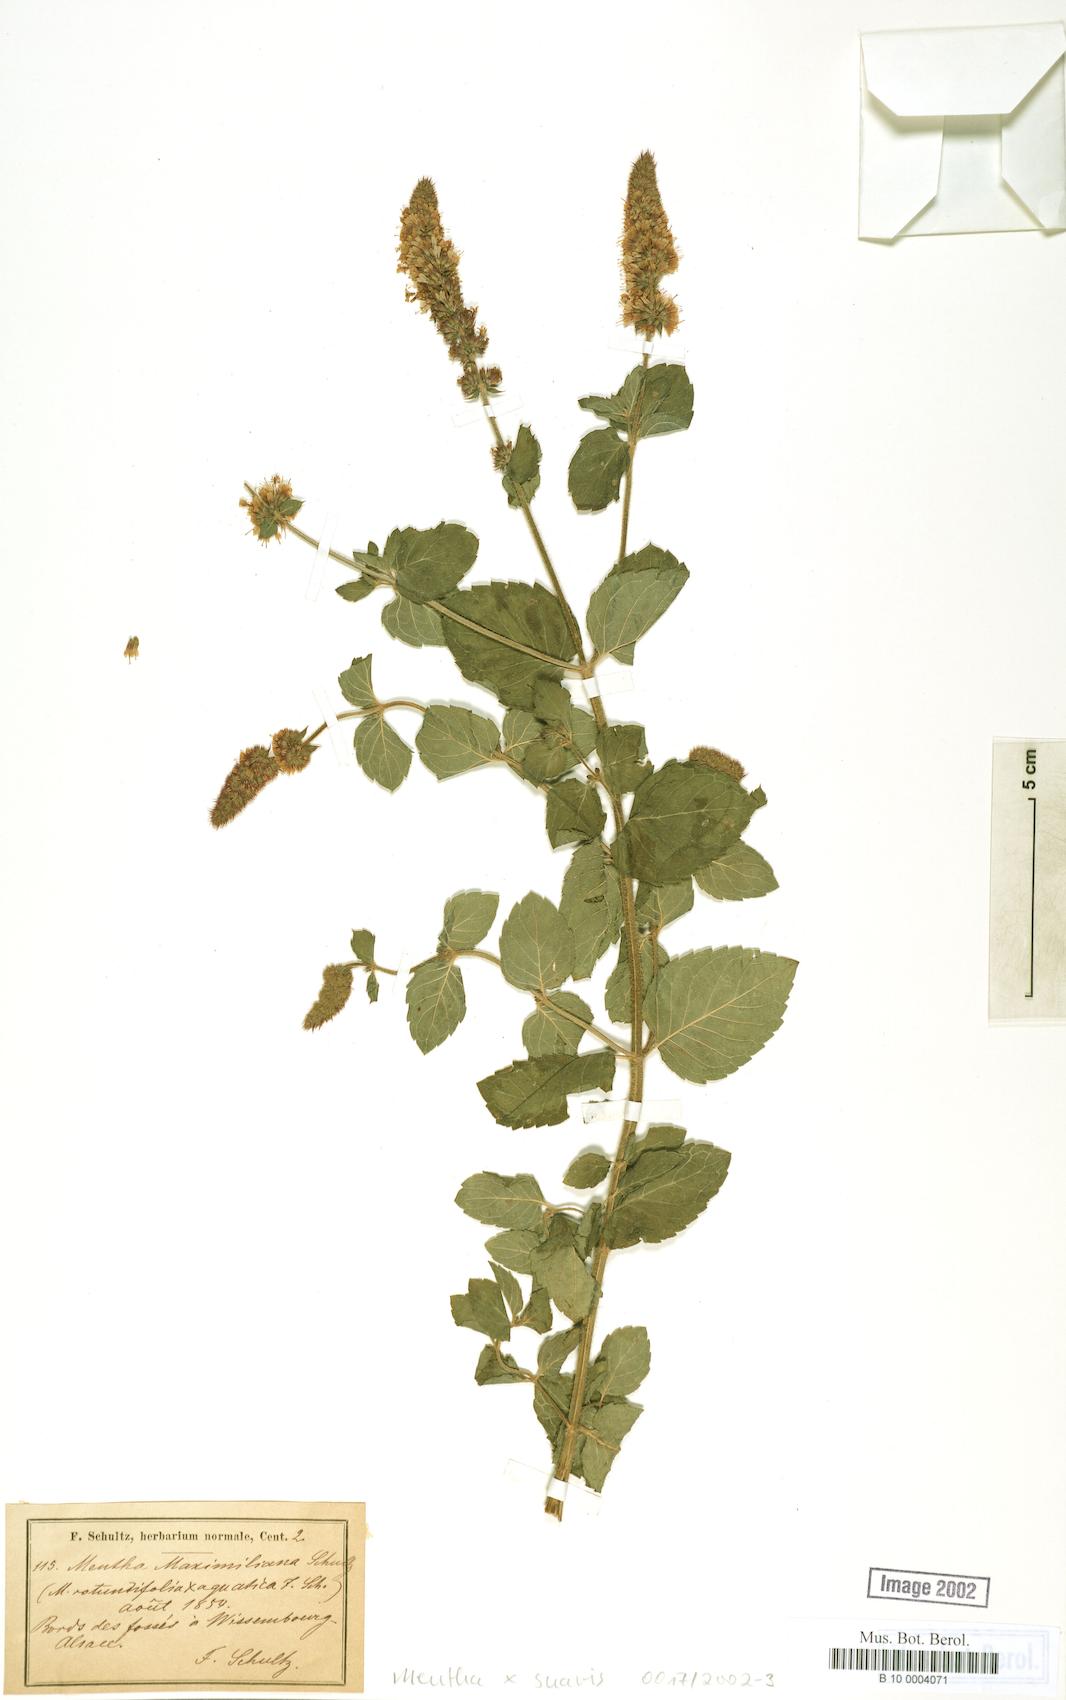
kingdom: Plantae
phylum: Tracheophyta
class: Magnoliopsida
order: Lamiales
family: Lamiaceae
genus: Mentha
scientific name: Mentha suavis
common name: Sweet mint
